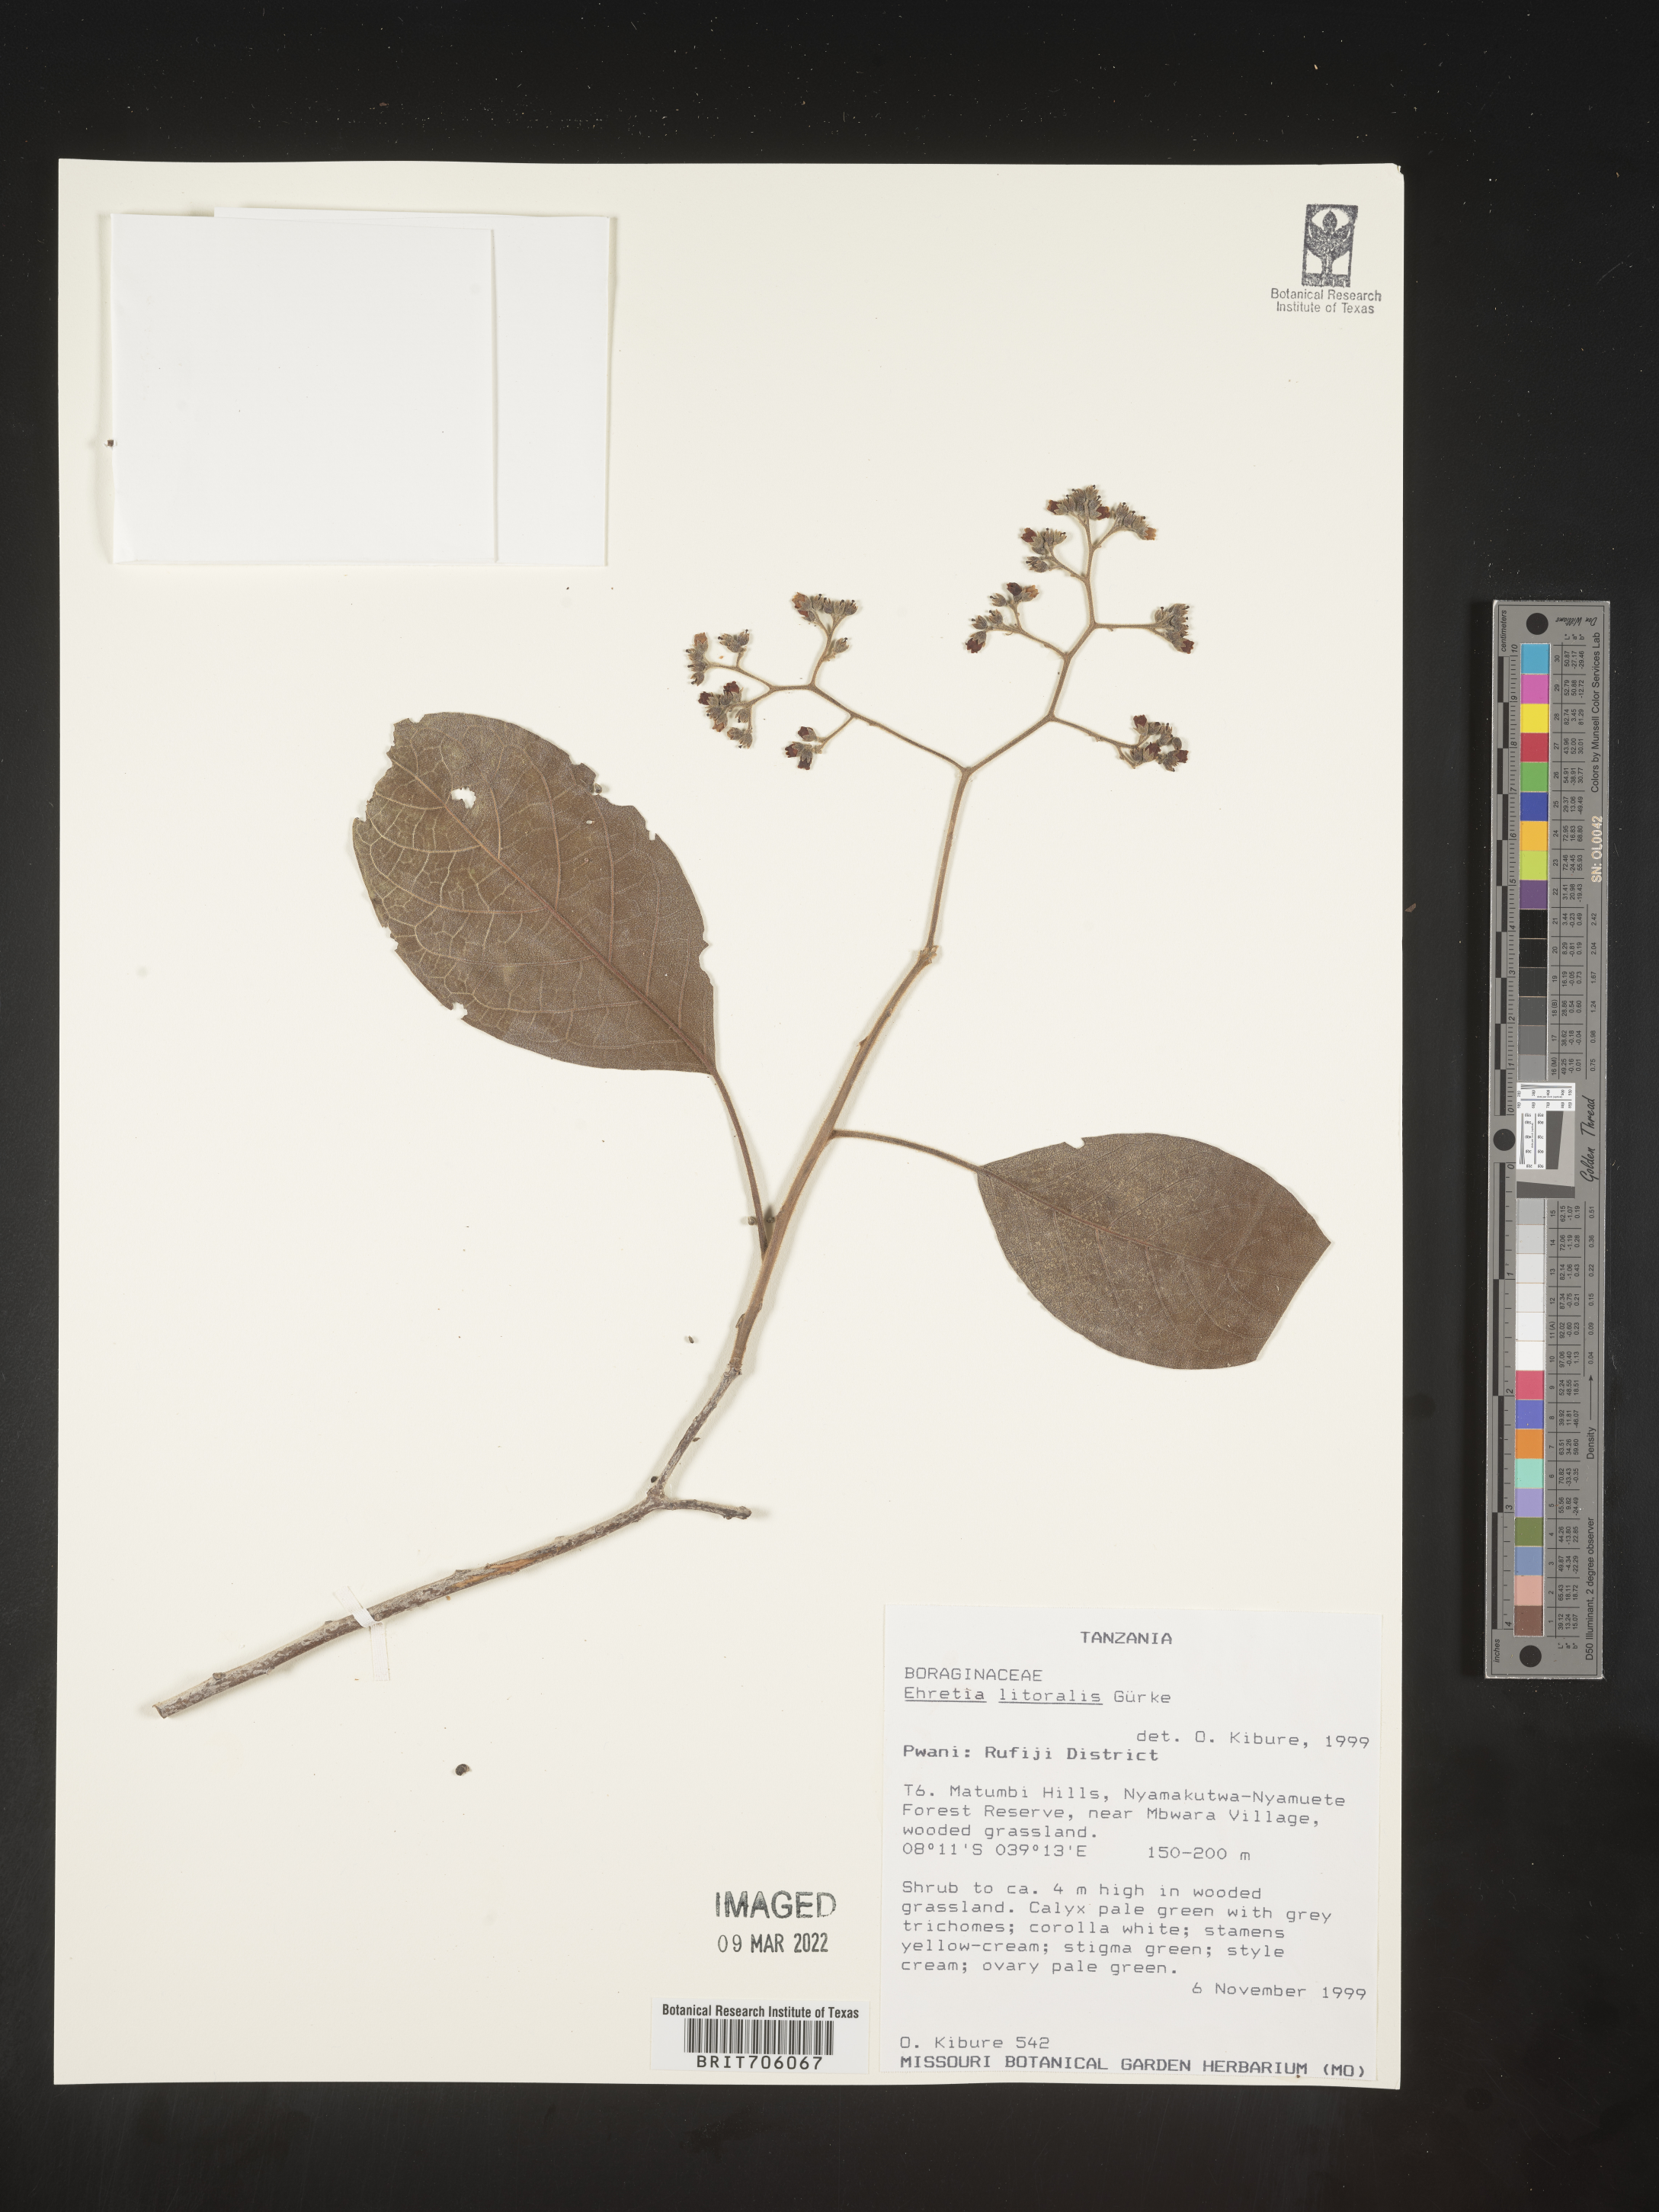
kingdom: Plantae
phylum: Tracheophyta
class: Magnoliopsida
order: Boraginales
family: Ehretiaceae
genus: Ehretia
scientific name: Ehretia
